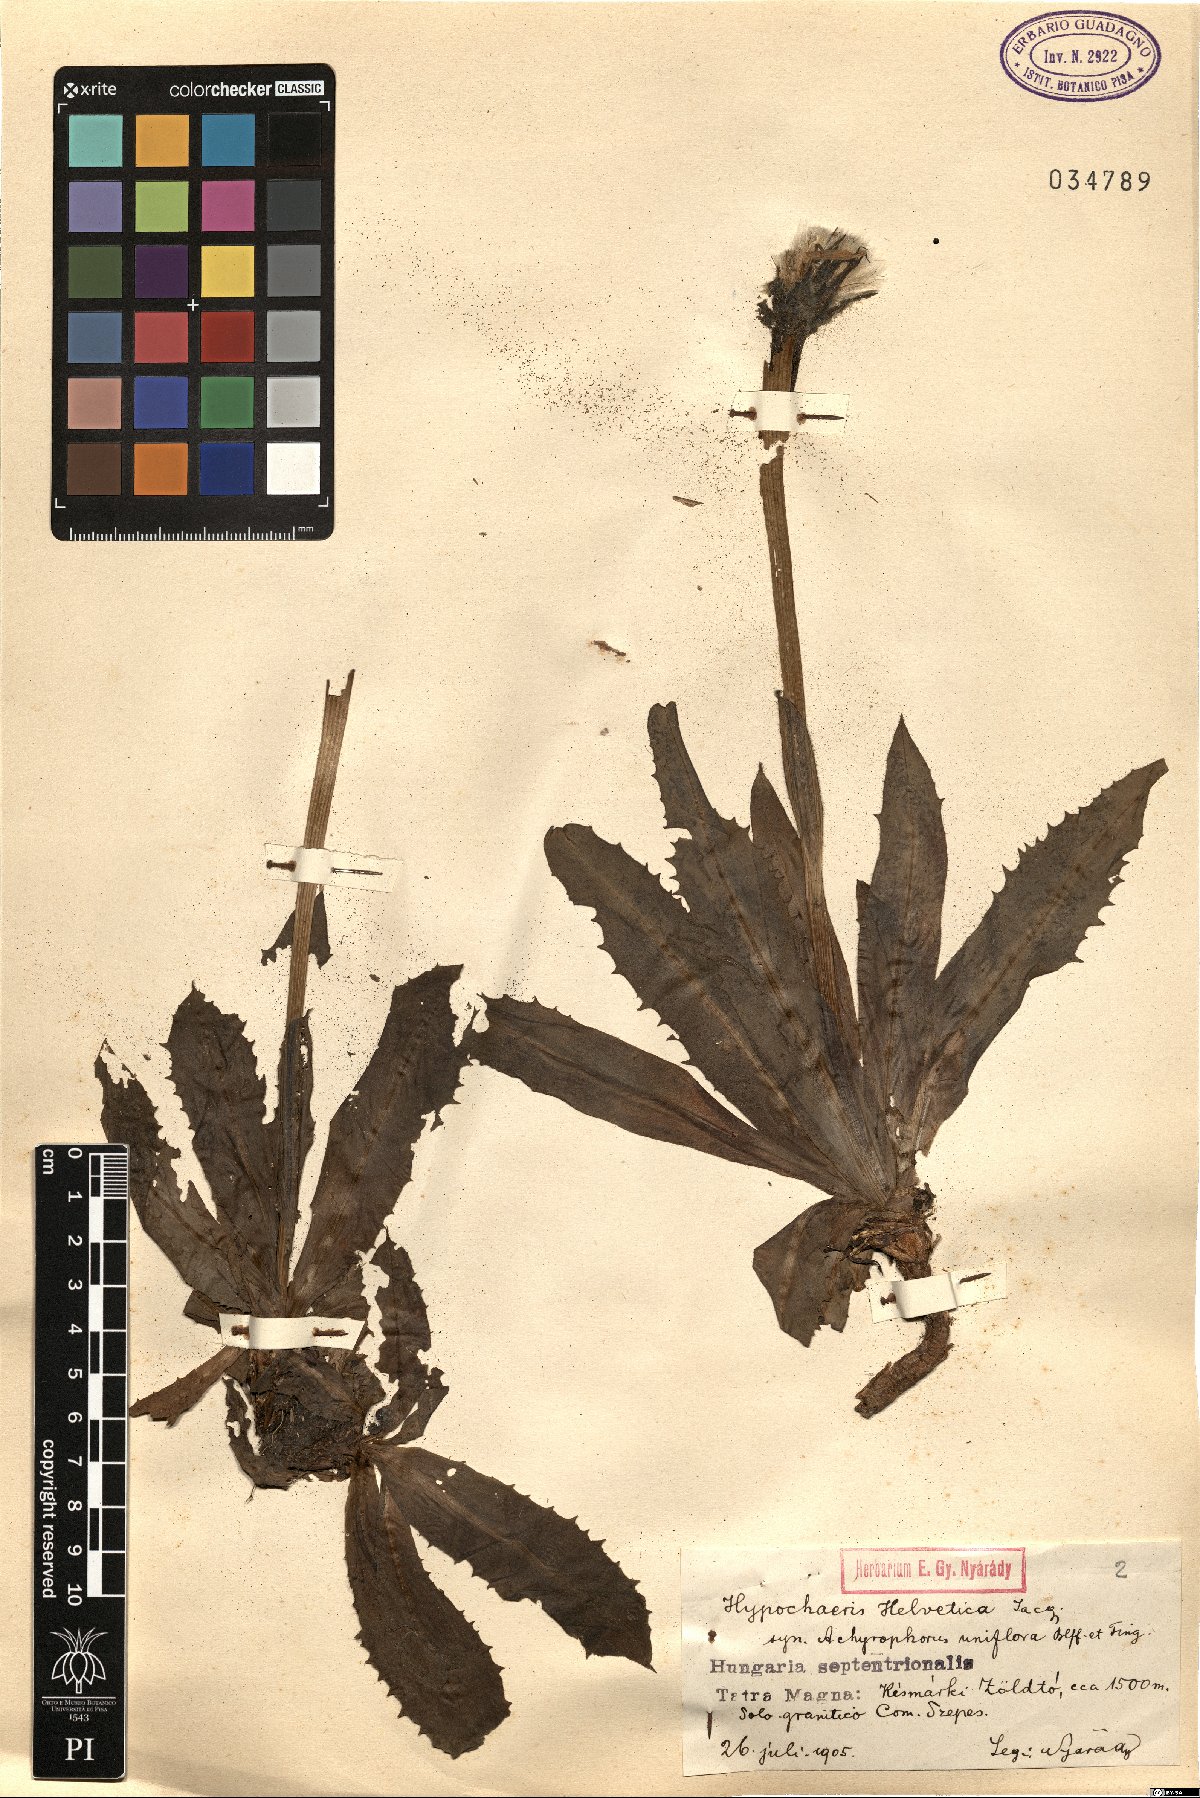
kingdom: Plantae
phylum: Tracheophyta
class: Magnoliopsida
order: Asterales
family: Asteraceae
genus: Trommsdorffia
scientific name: Trommsdorffia uniflora
